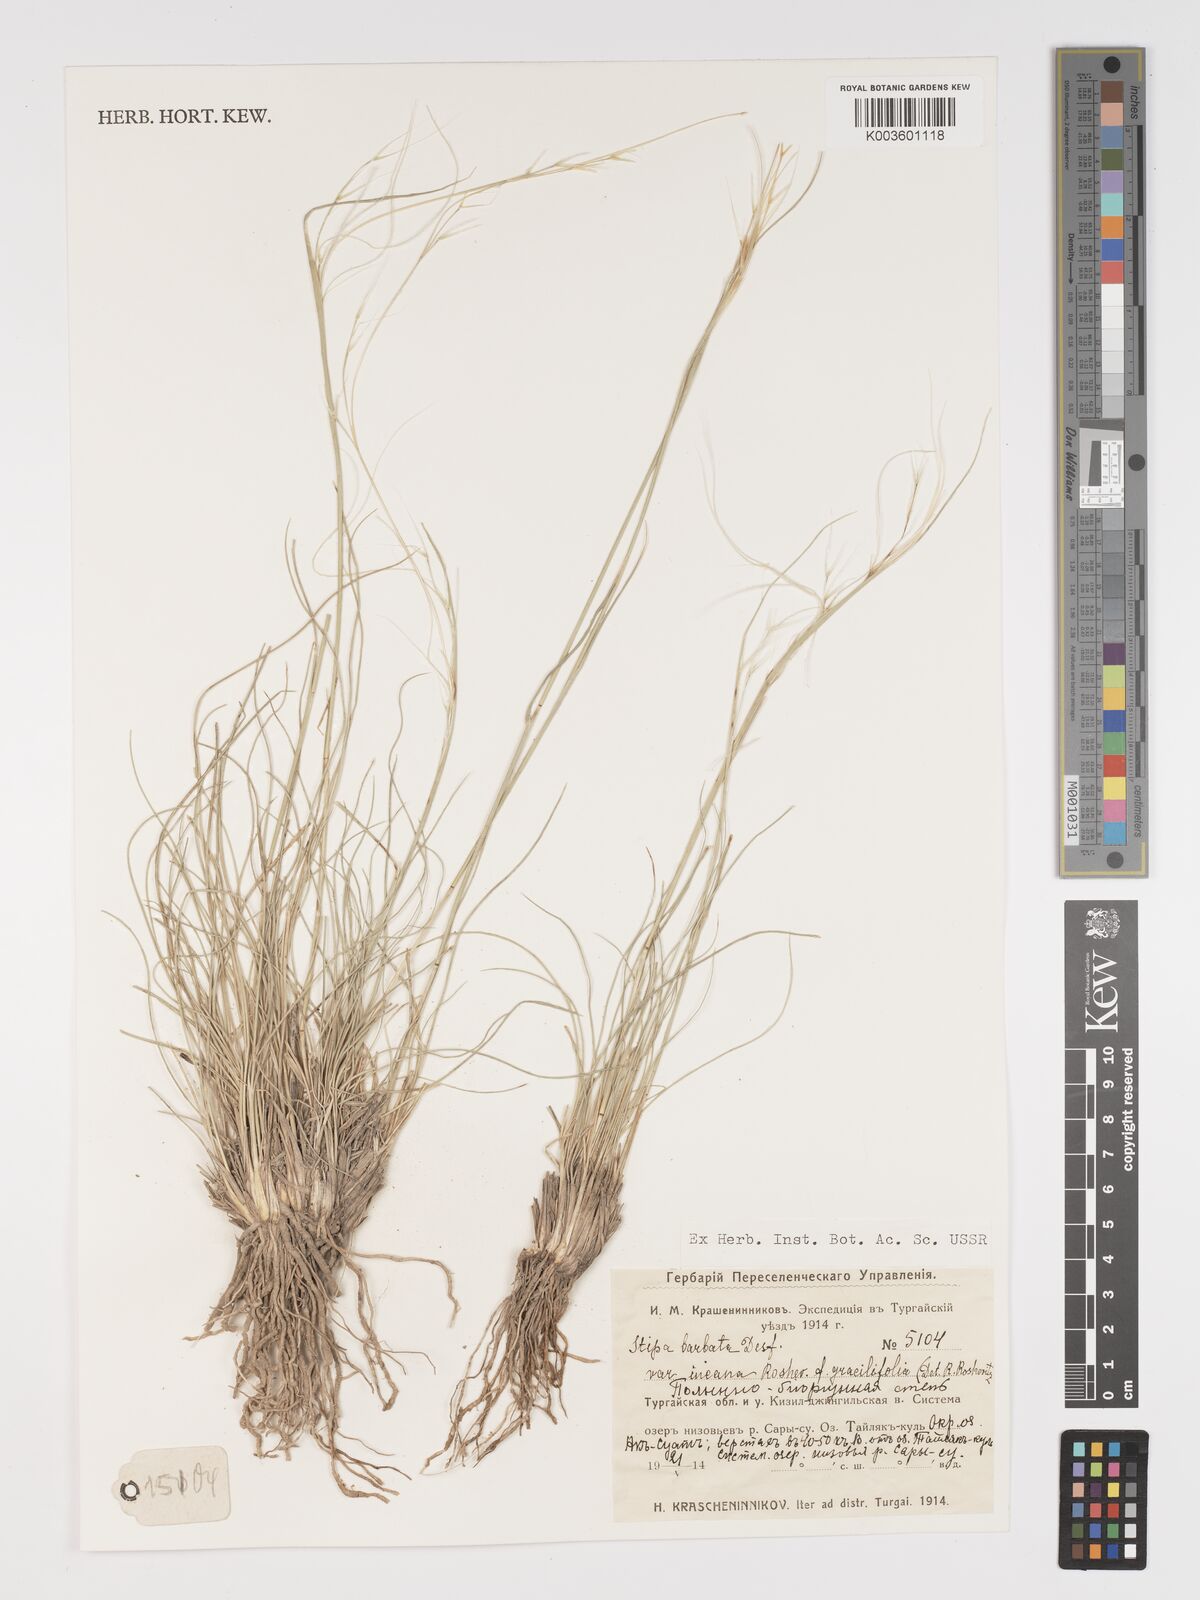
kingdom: Plantae
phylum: Tracheophyta
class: Liliopsida
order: Poales
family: Poaceae
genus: Stipa
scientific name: Stipa arabica
